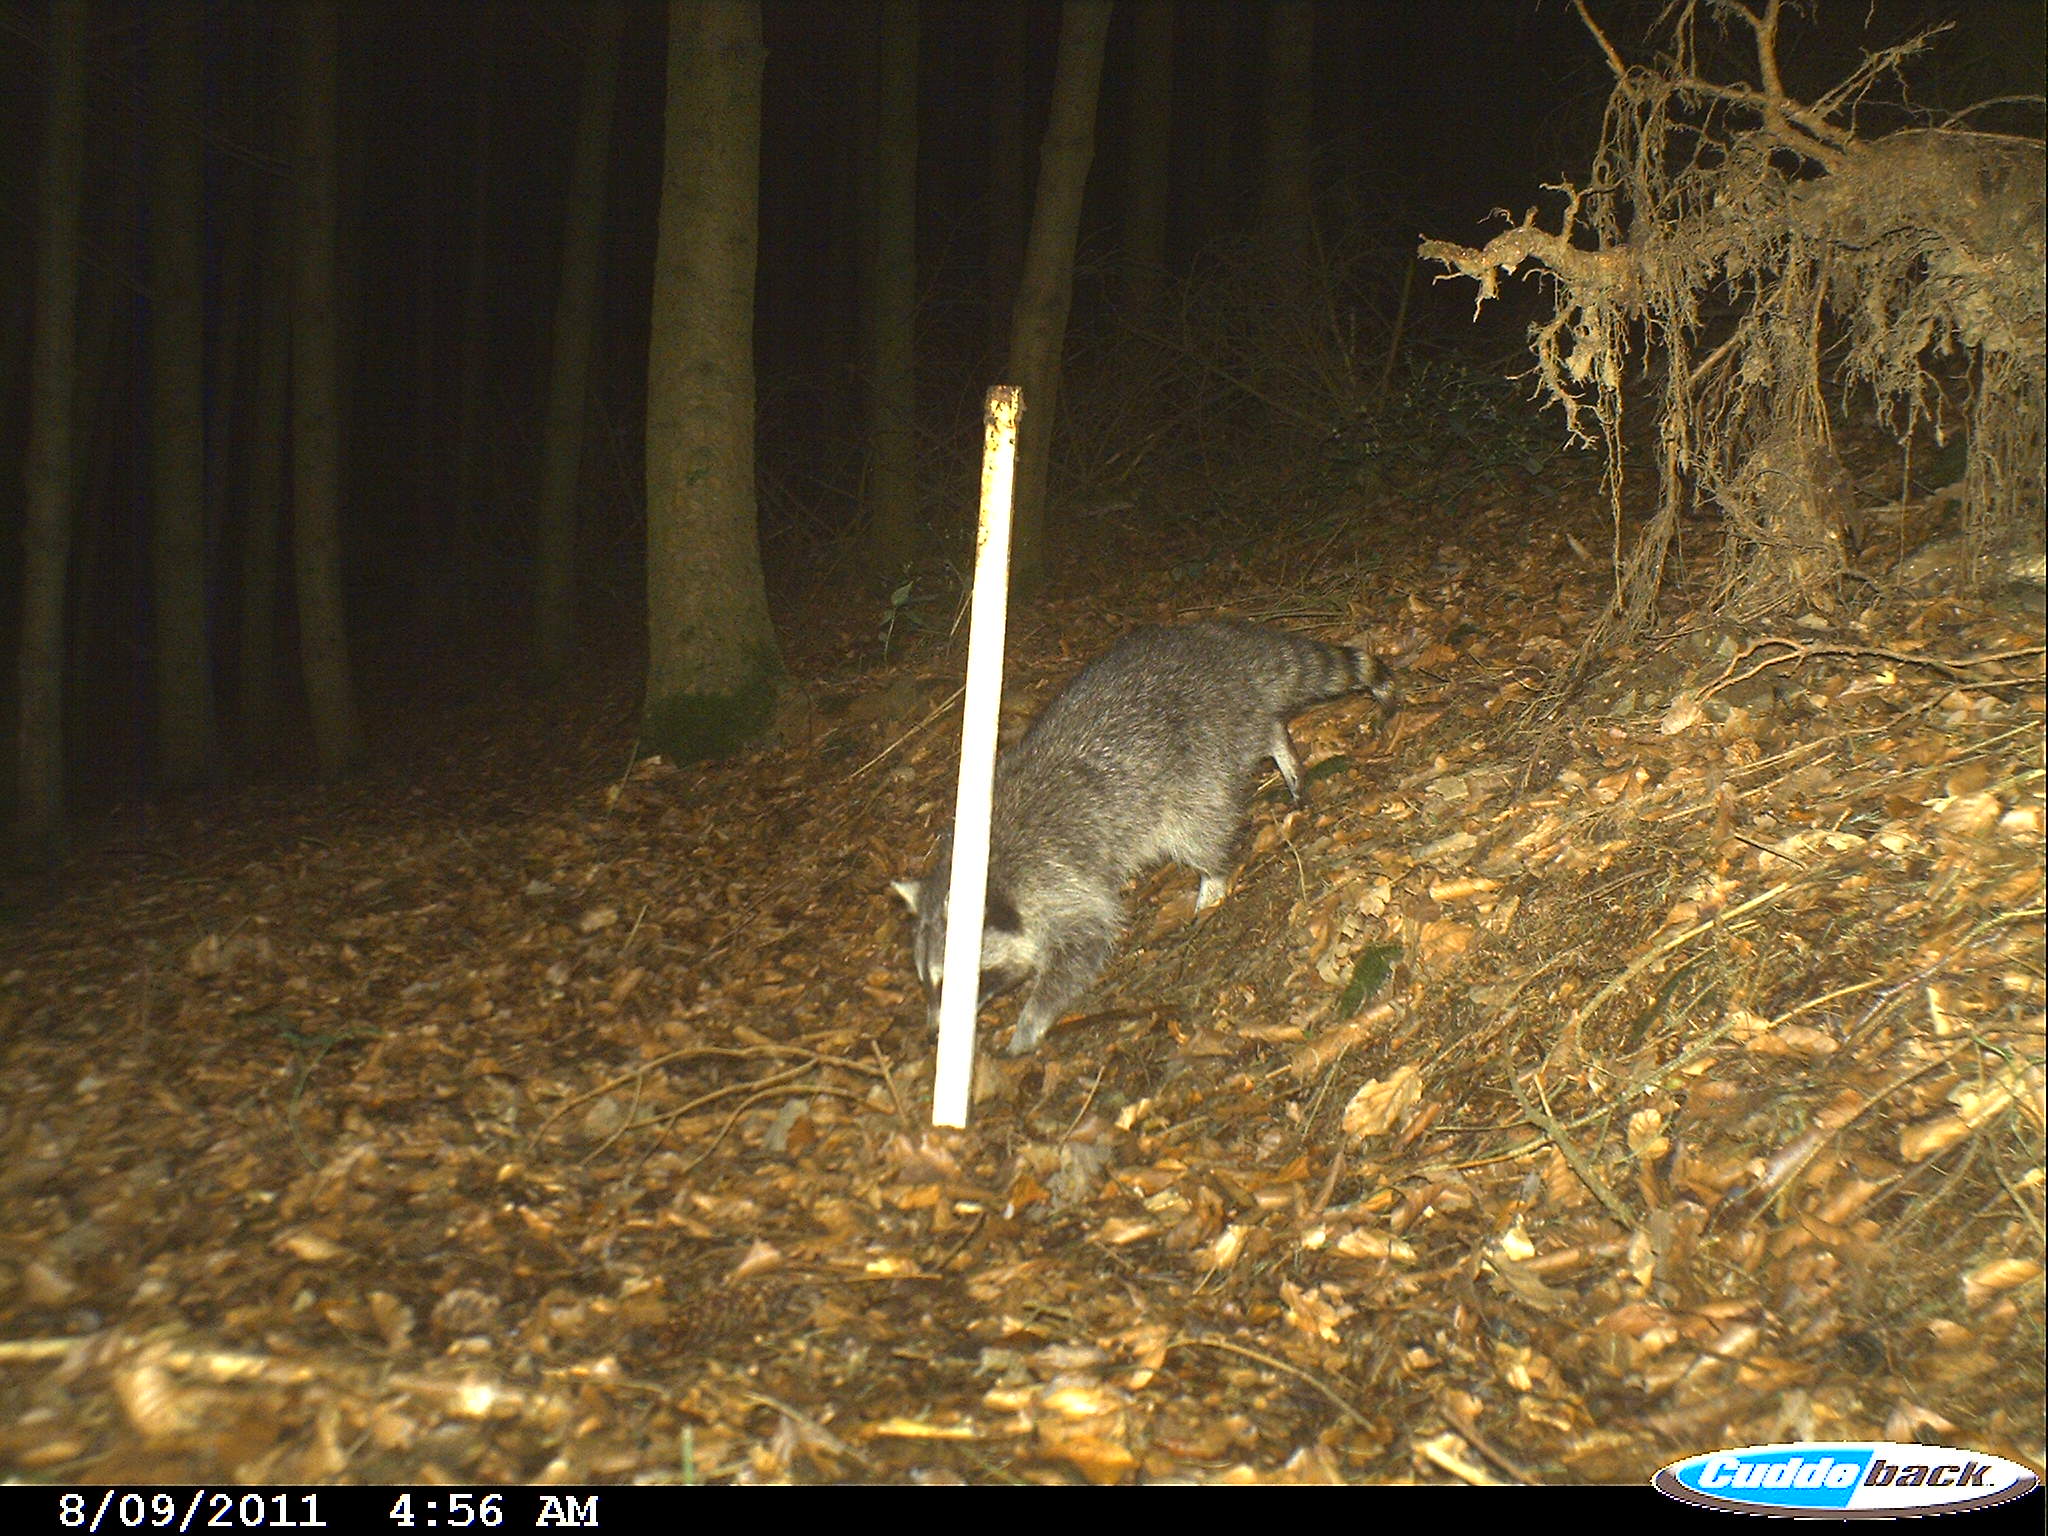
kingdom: Animalia
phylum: Chordata
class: Mammalia
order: Carnivora
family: Procyonidae
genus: Procyon
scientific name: Procyon lotor
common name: Raccoon
